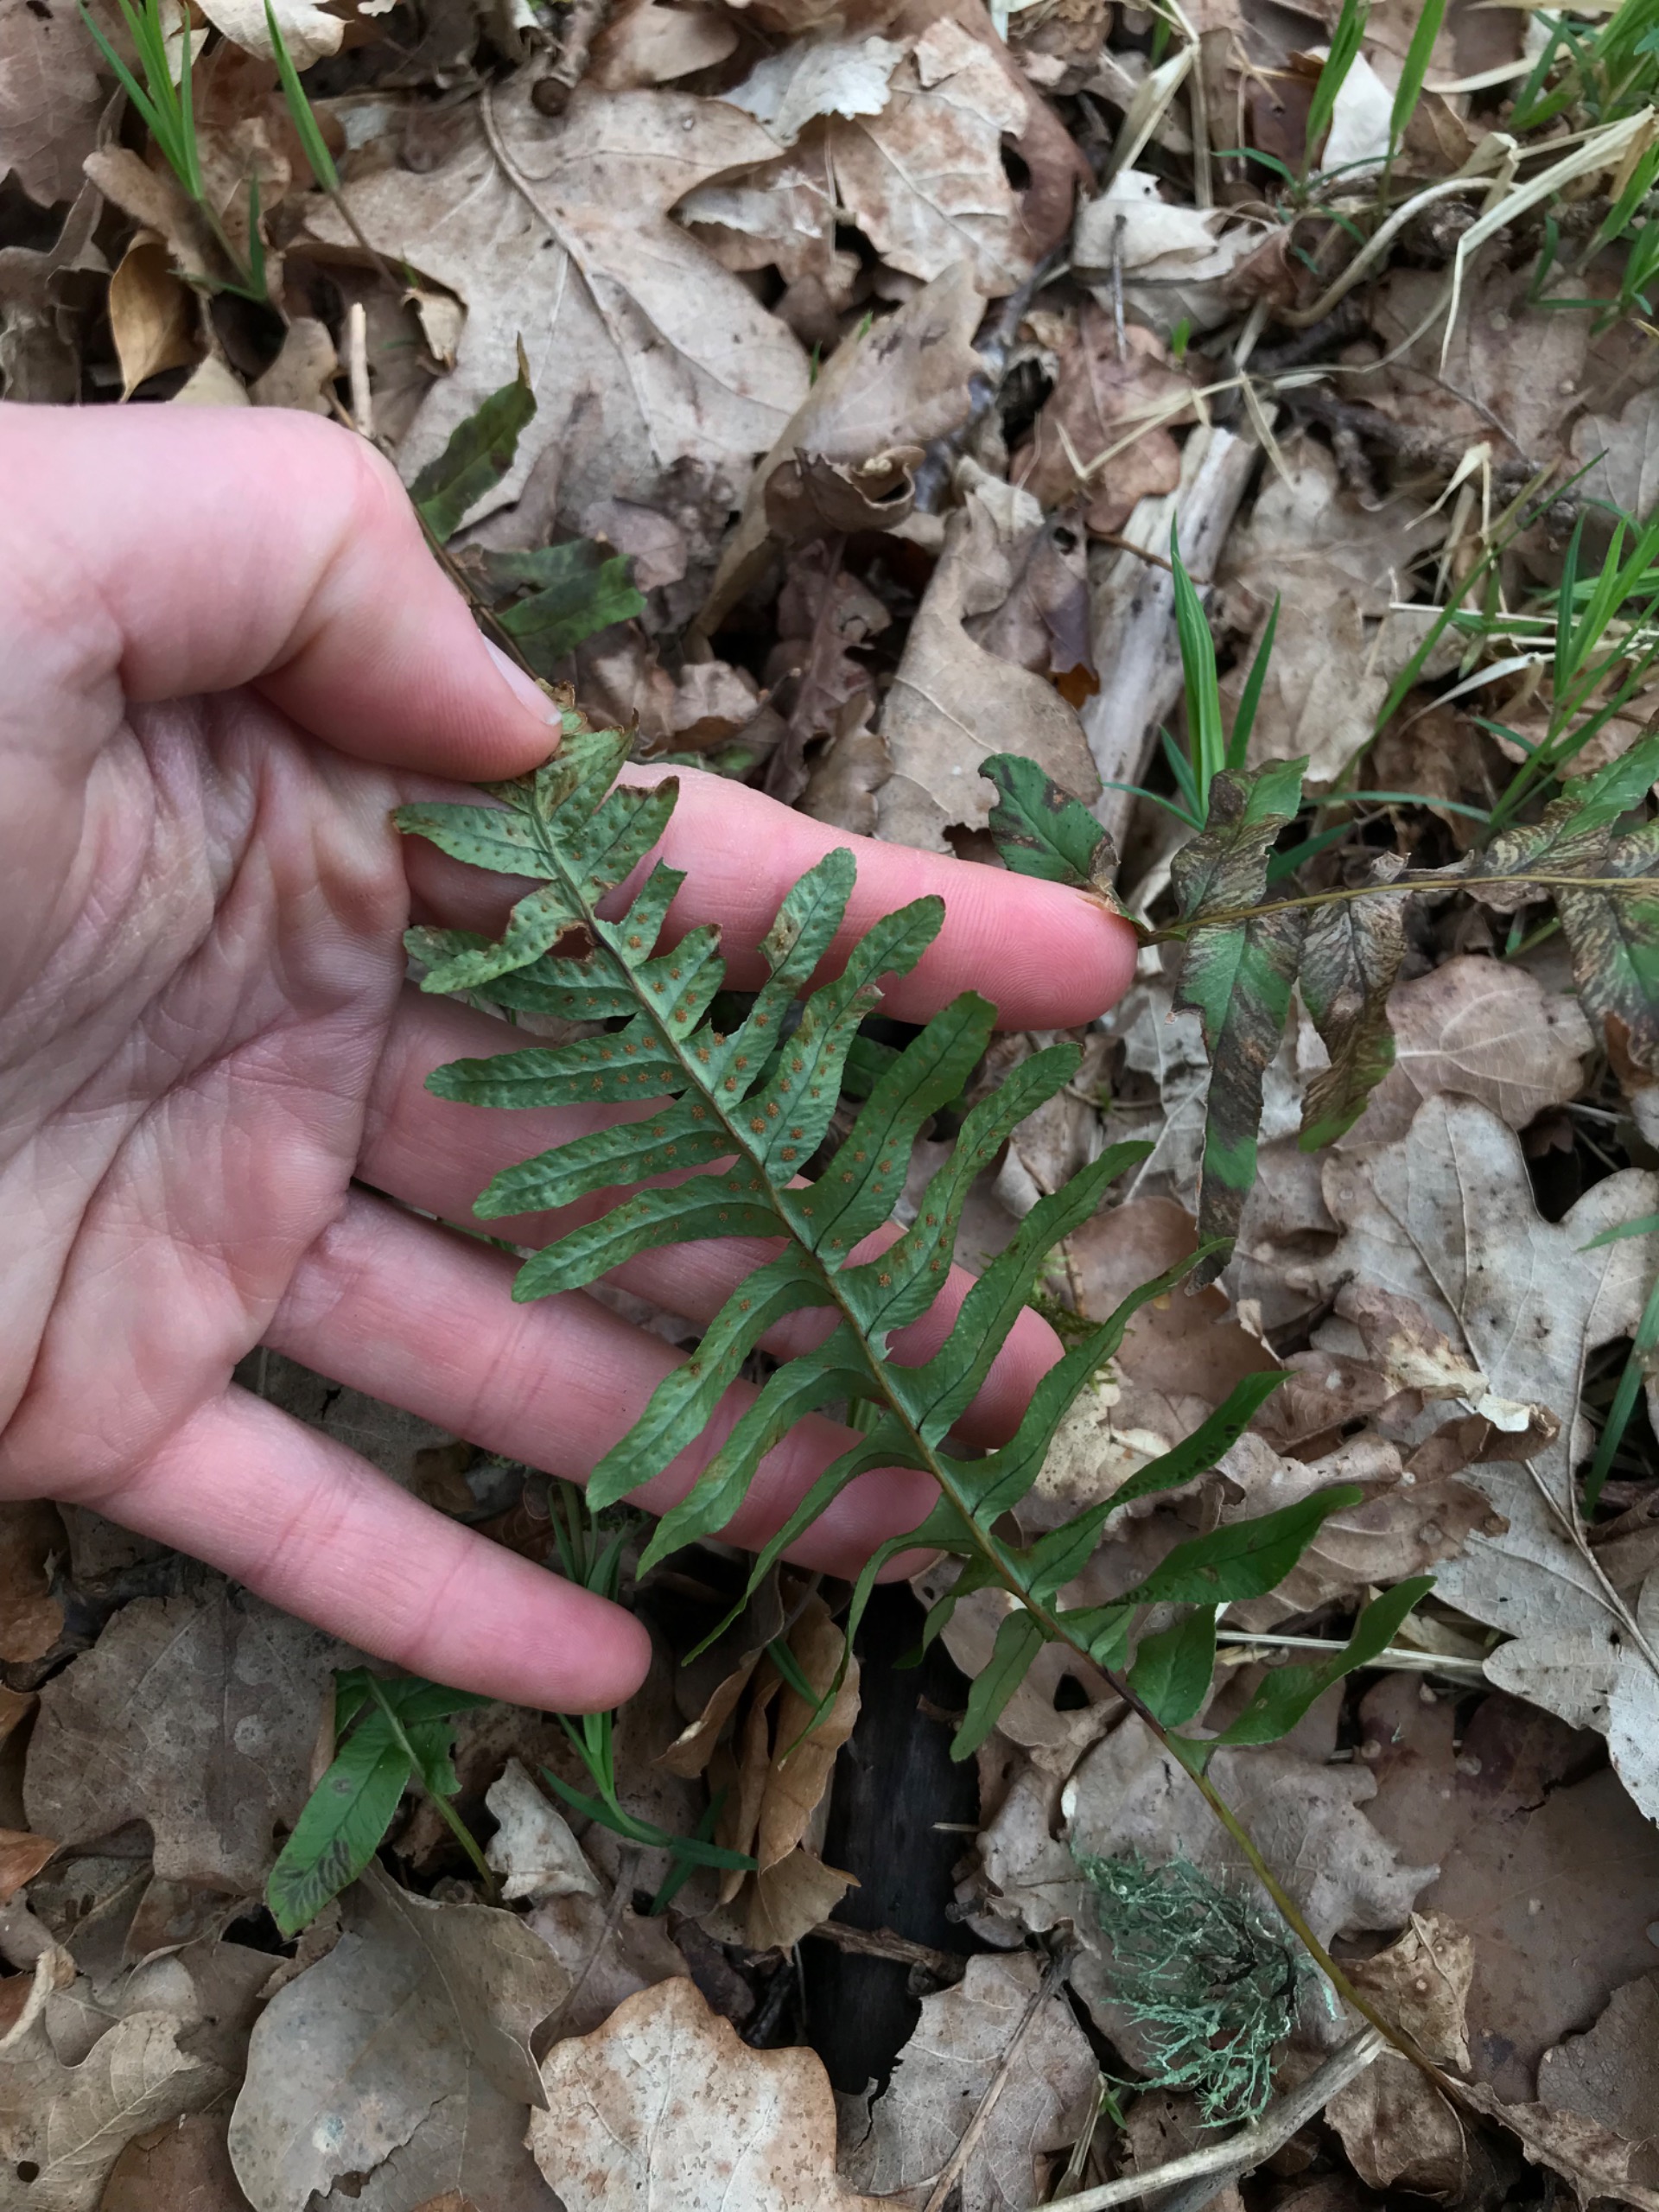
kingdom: Plantae
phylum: Tracheophyta
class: Polypodiopsida
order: Polypodiales
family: Polypodiaceae
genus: Polypodium
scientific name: Polypodium vulgare
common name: Almindelig engelsød
